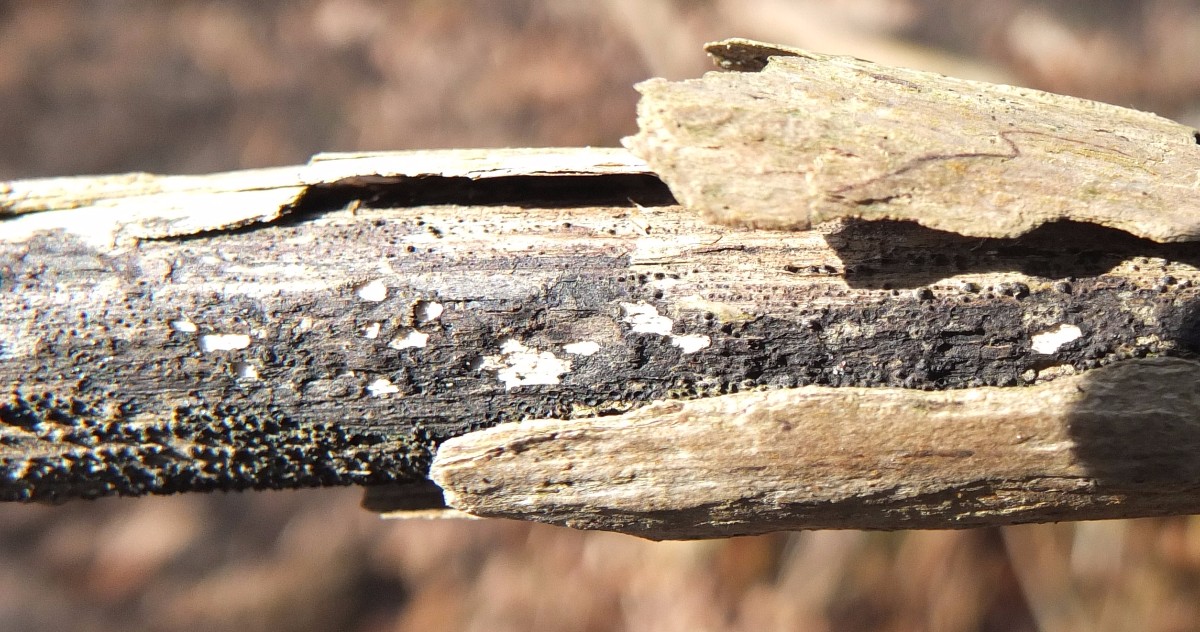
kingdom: Fungi
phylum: Ascomycota
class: Sordariomycetes
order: Xylariales
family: Diatrypaceae
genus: Eutypa
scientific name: Eutypa lata
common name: almindelig kulskorpe
